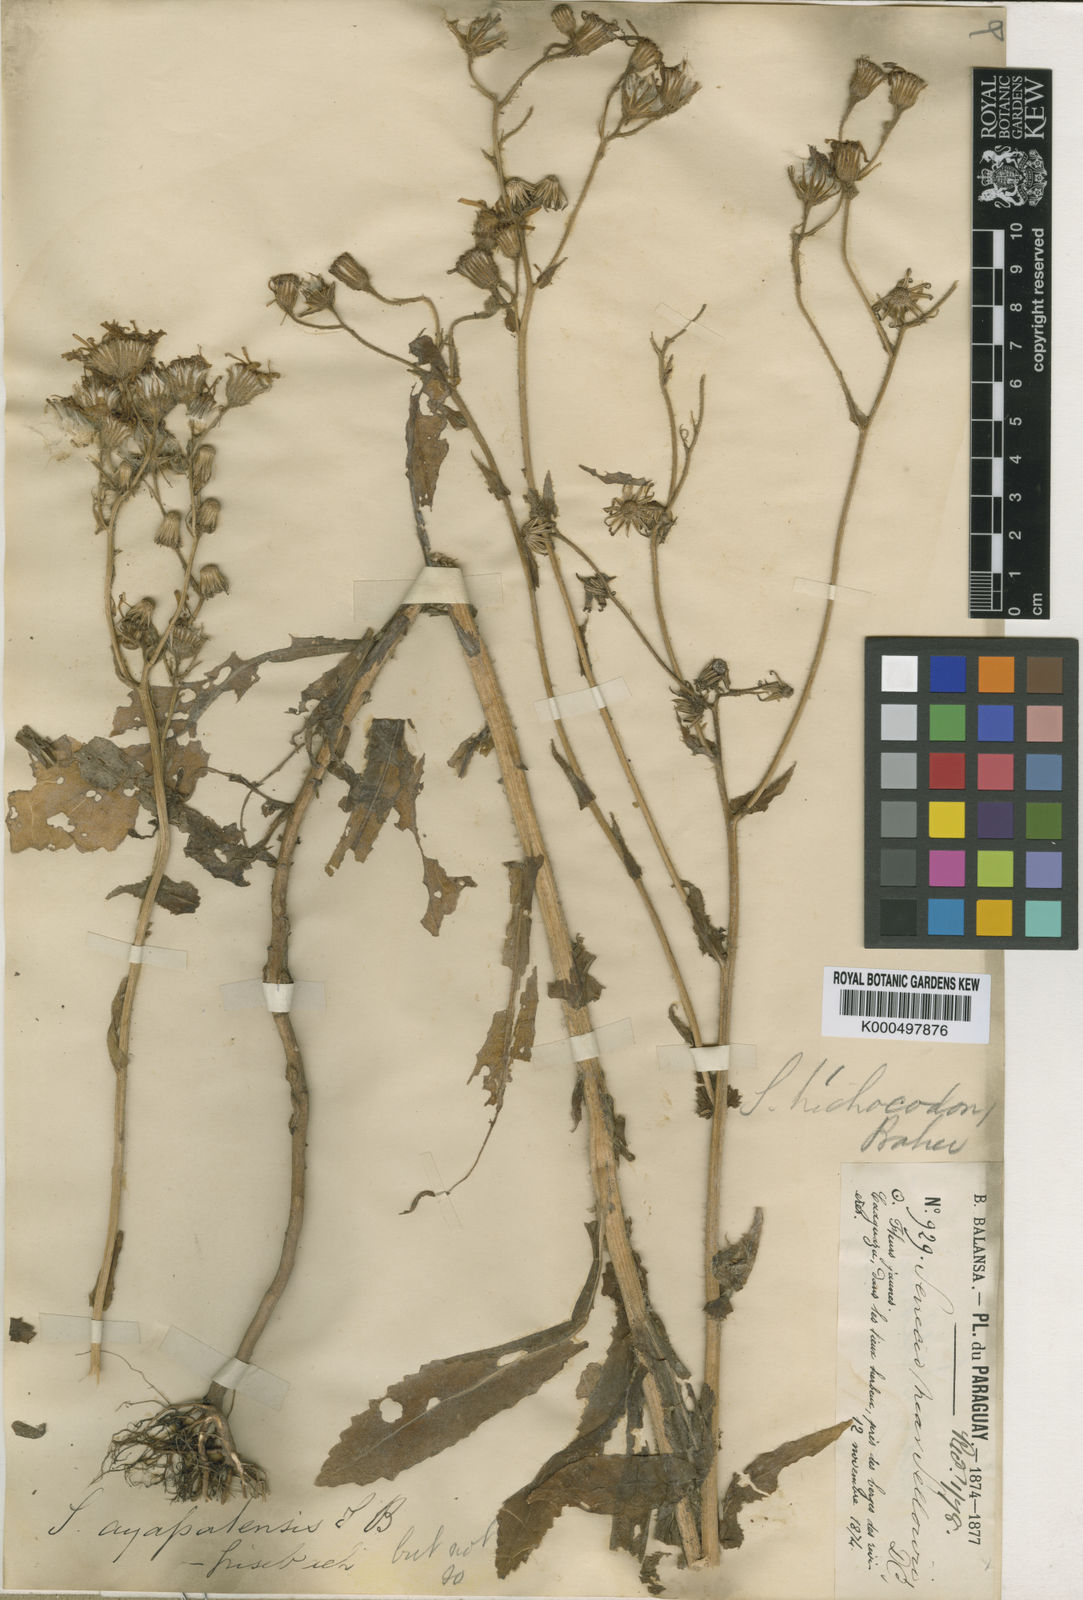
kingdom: Plantae
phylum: Tracheophyta
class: Magnoliopsida
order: Asterales
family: Asteraceae
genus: Senecio
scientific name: Senecio trichocodon
